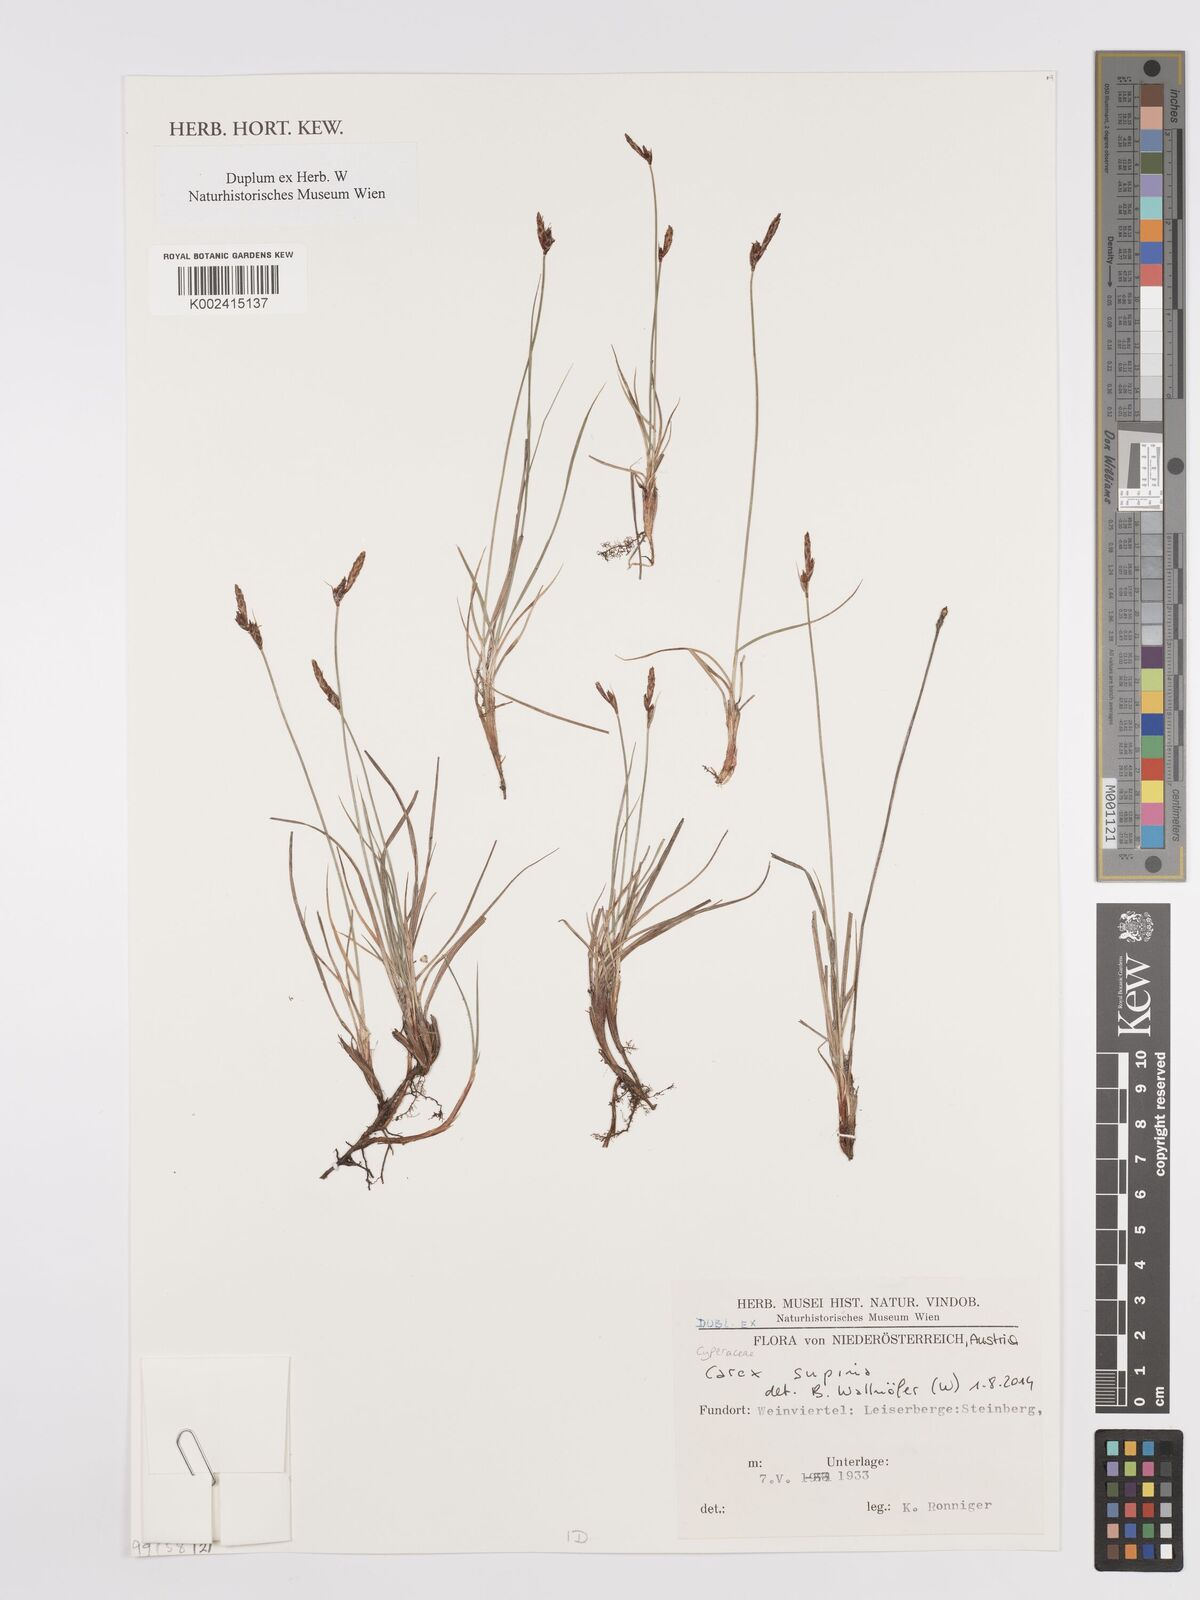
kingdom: Plantae
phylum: Tracheophyta
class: Liliopsida
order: Poales
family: Cyperaceae
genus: Carex
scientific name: Carex rupestris
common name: Rock sedge
